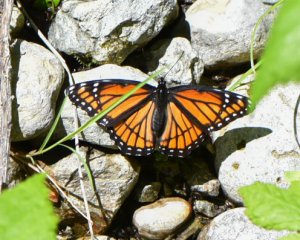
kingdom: Animalia
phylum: Arthropoda
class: Insecta
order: Lepidoptera
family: Nymphalidae
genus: Limenitis
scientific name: Limenitis archippus
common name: Viceroy
